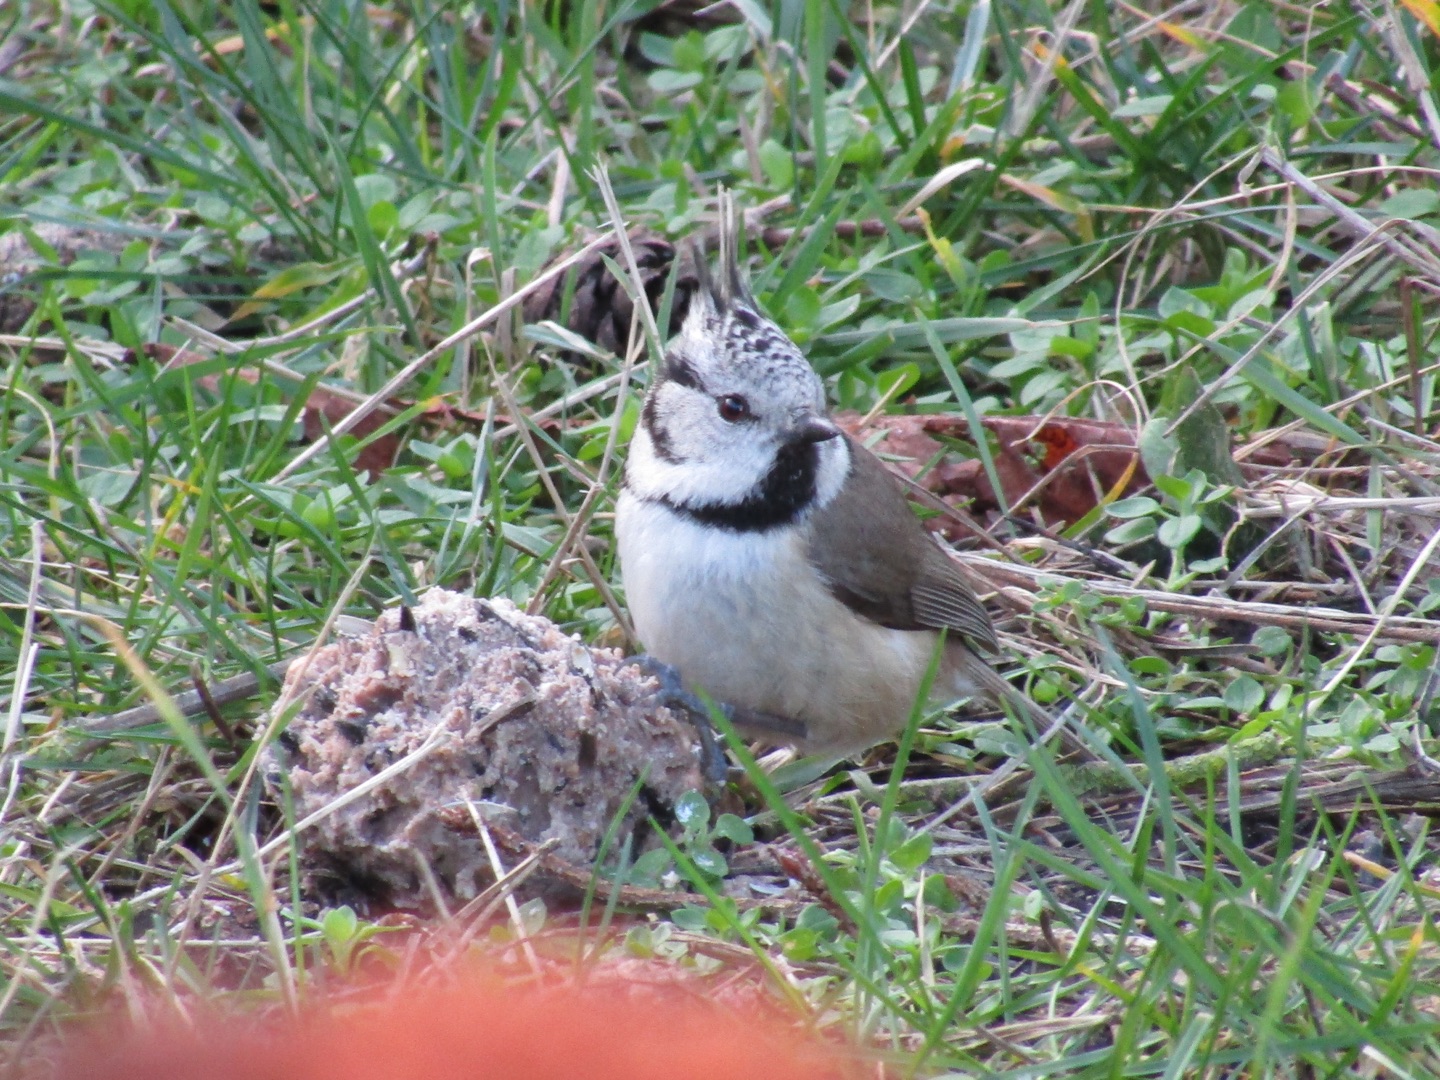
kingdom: Animalia
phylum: Chordata
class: Aves
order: Passeriformes
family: Paridae
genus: Lophophanes
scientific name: Lophophanes cristatus
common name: Topmejse
